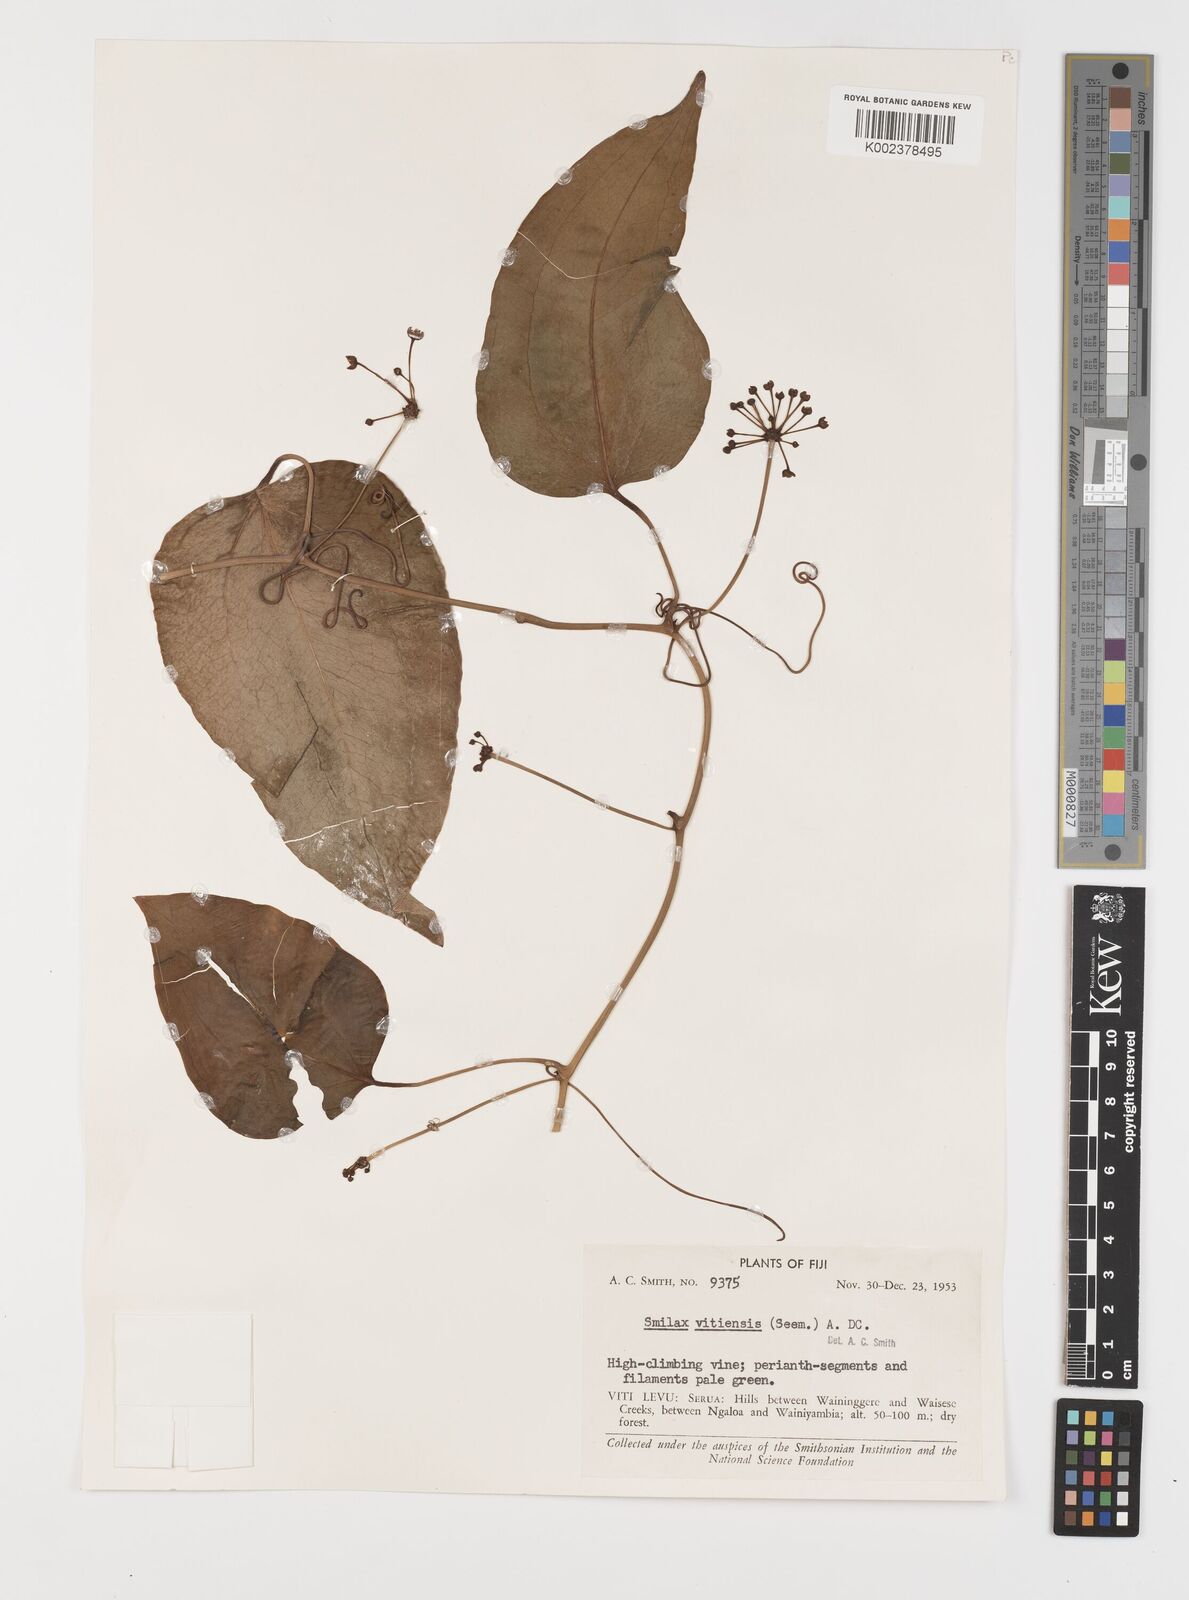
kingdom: Plantae
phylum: Tracheophyta
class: Liliopsida
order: Liliales
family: Smilacaceae
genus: Smilax
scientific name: Smilax vitiensis
